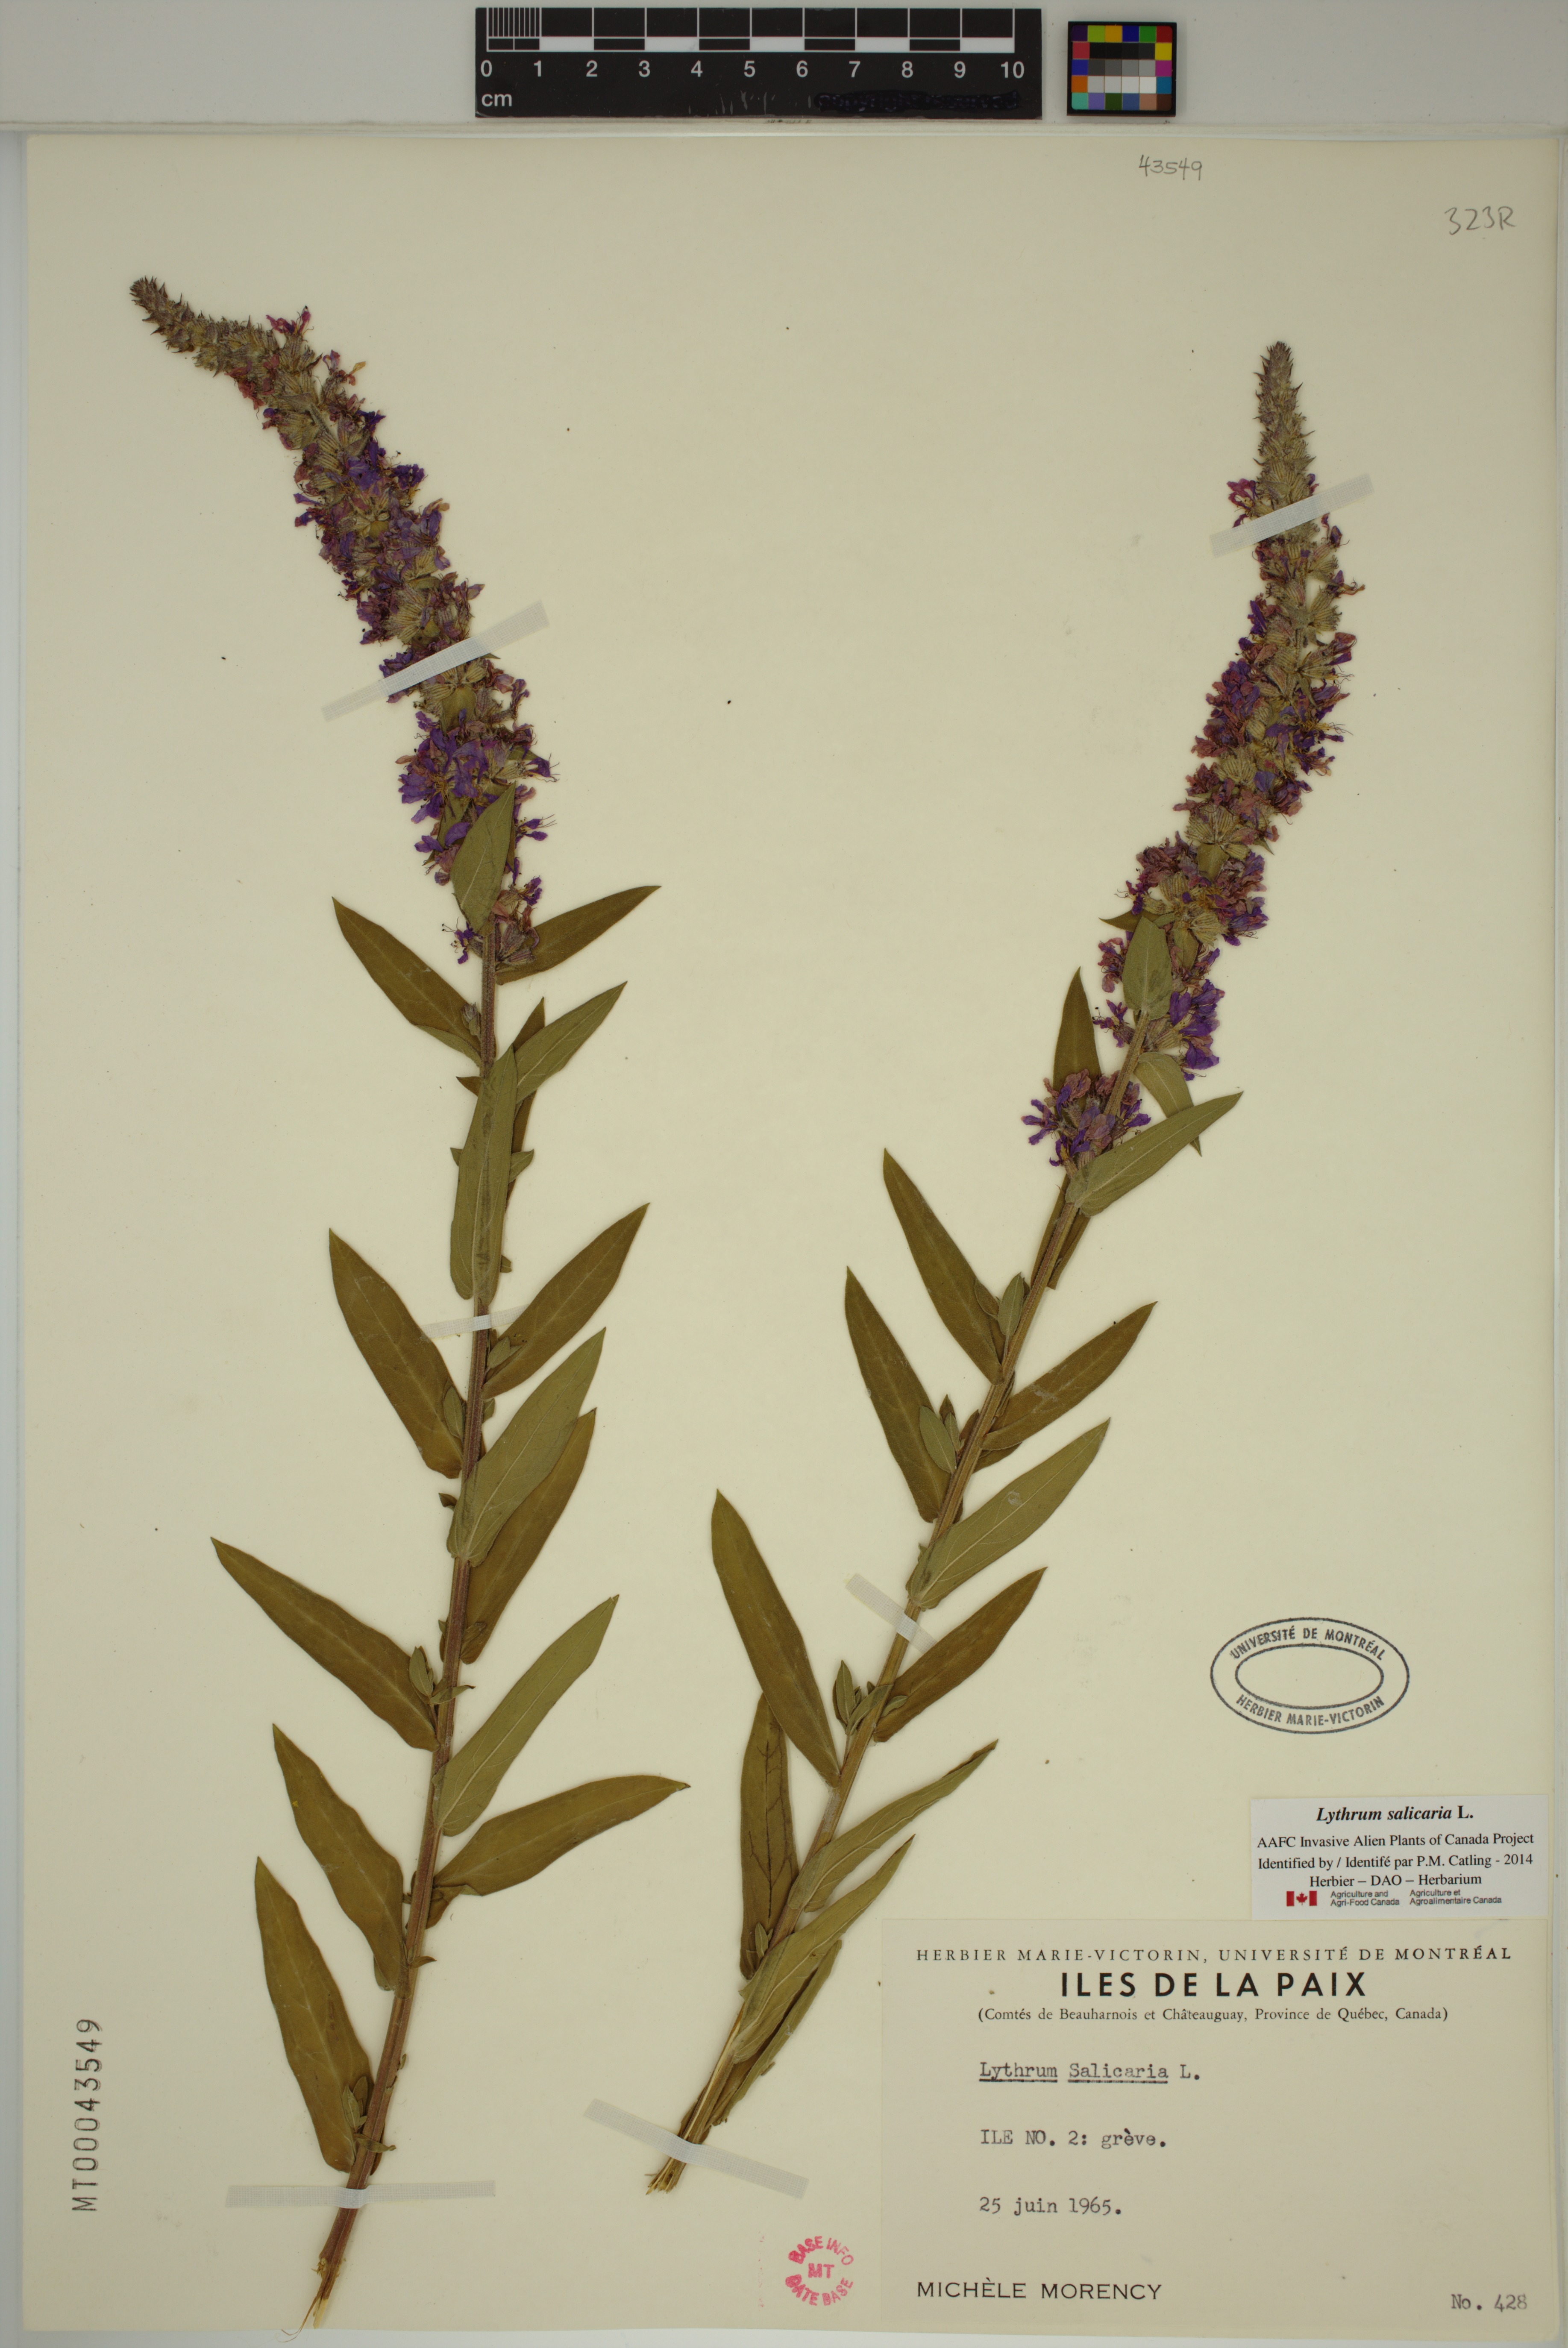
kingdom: Plantae
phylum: Tracheophyta
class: Magnoliopsida
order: Myrtales
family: Lythraceae
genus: Lythrum
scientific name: Lythrum salicaria
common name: Purple loosestrife
